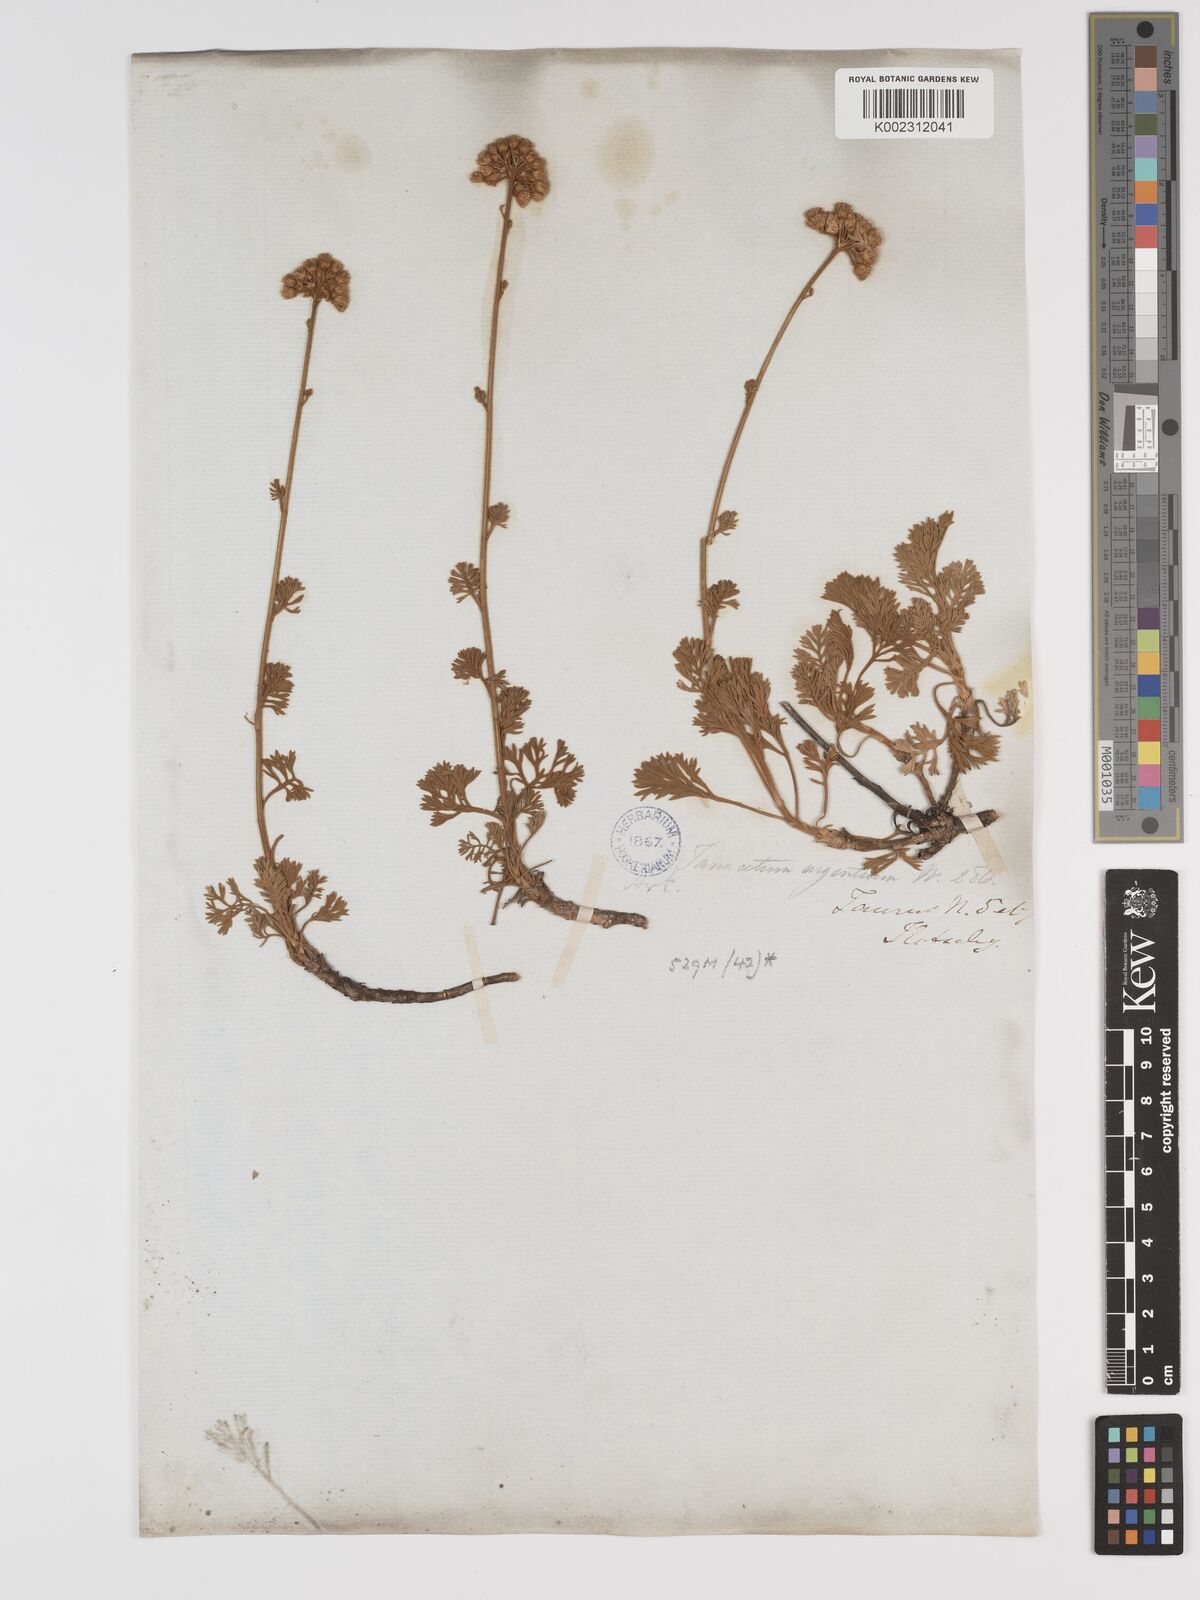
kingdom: Plantae
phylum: Tracheophyta
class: Magnoliopsida
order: Asterales
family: Asteraceae
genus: Tanacetum
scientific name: Tanacetum argenteum
